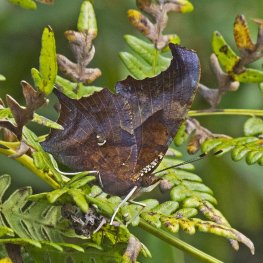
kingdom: Animalia
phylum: Arthropoda
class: Insecta
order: Lepidoptera
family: Nymphalidae
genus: Polygonia
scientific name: Polygonia interrogationis
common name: Question Mark
